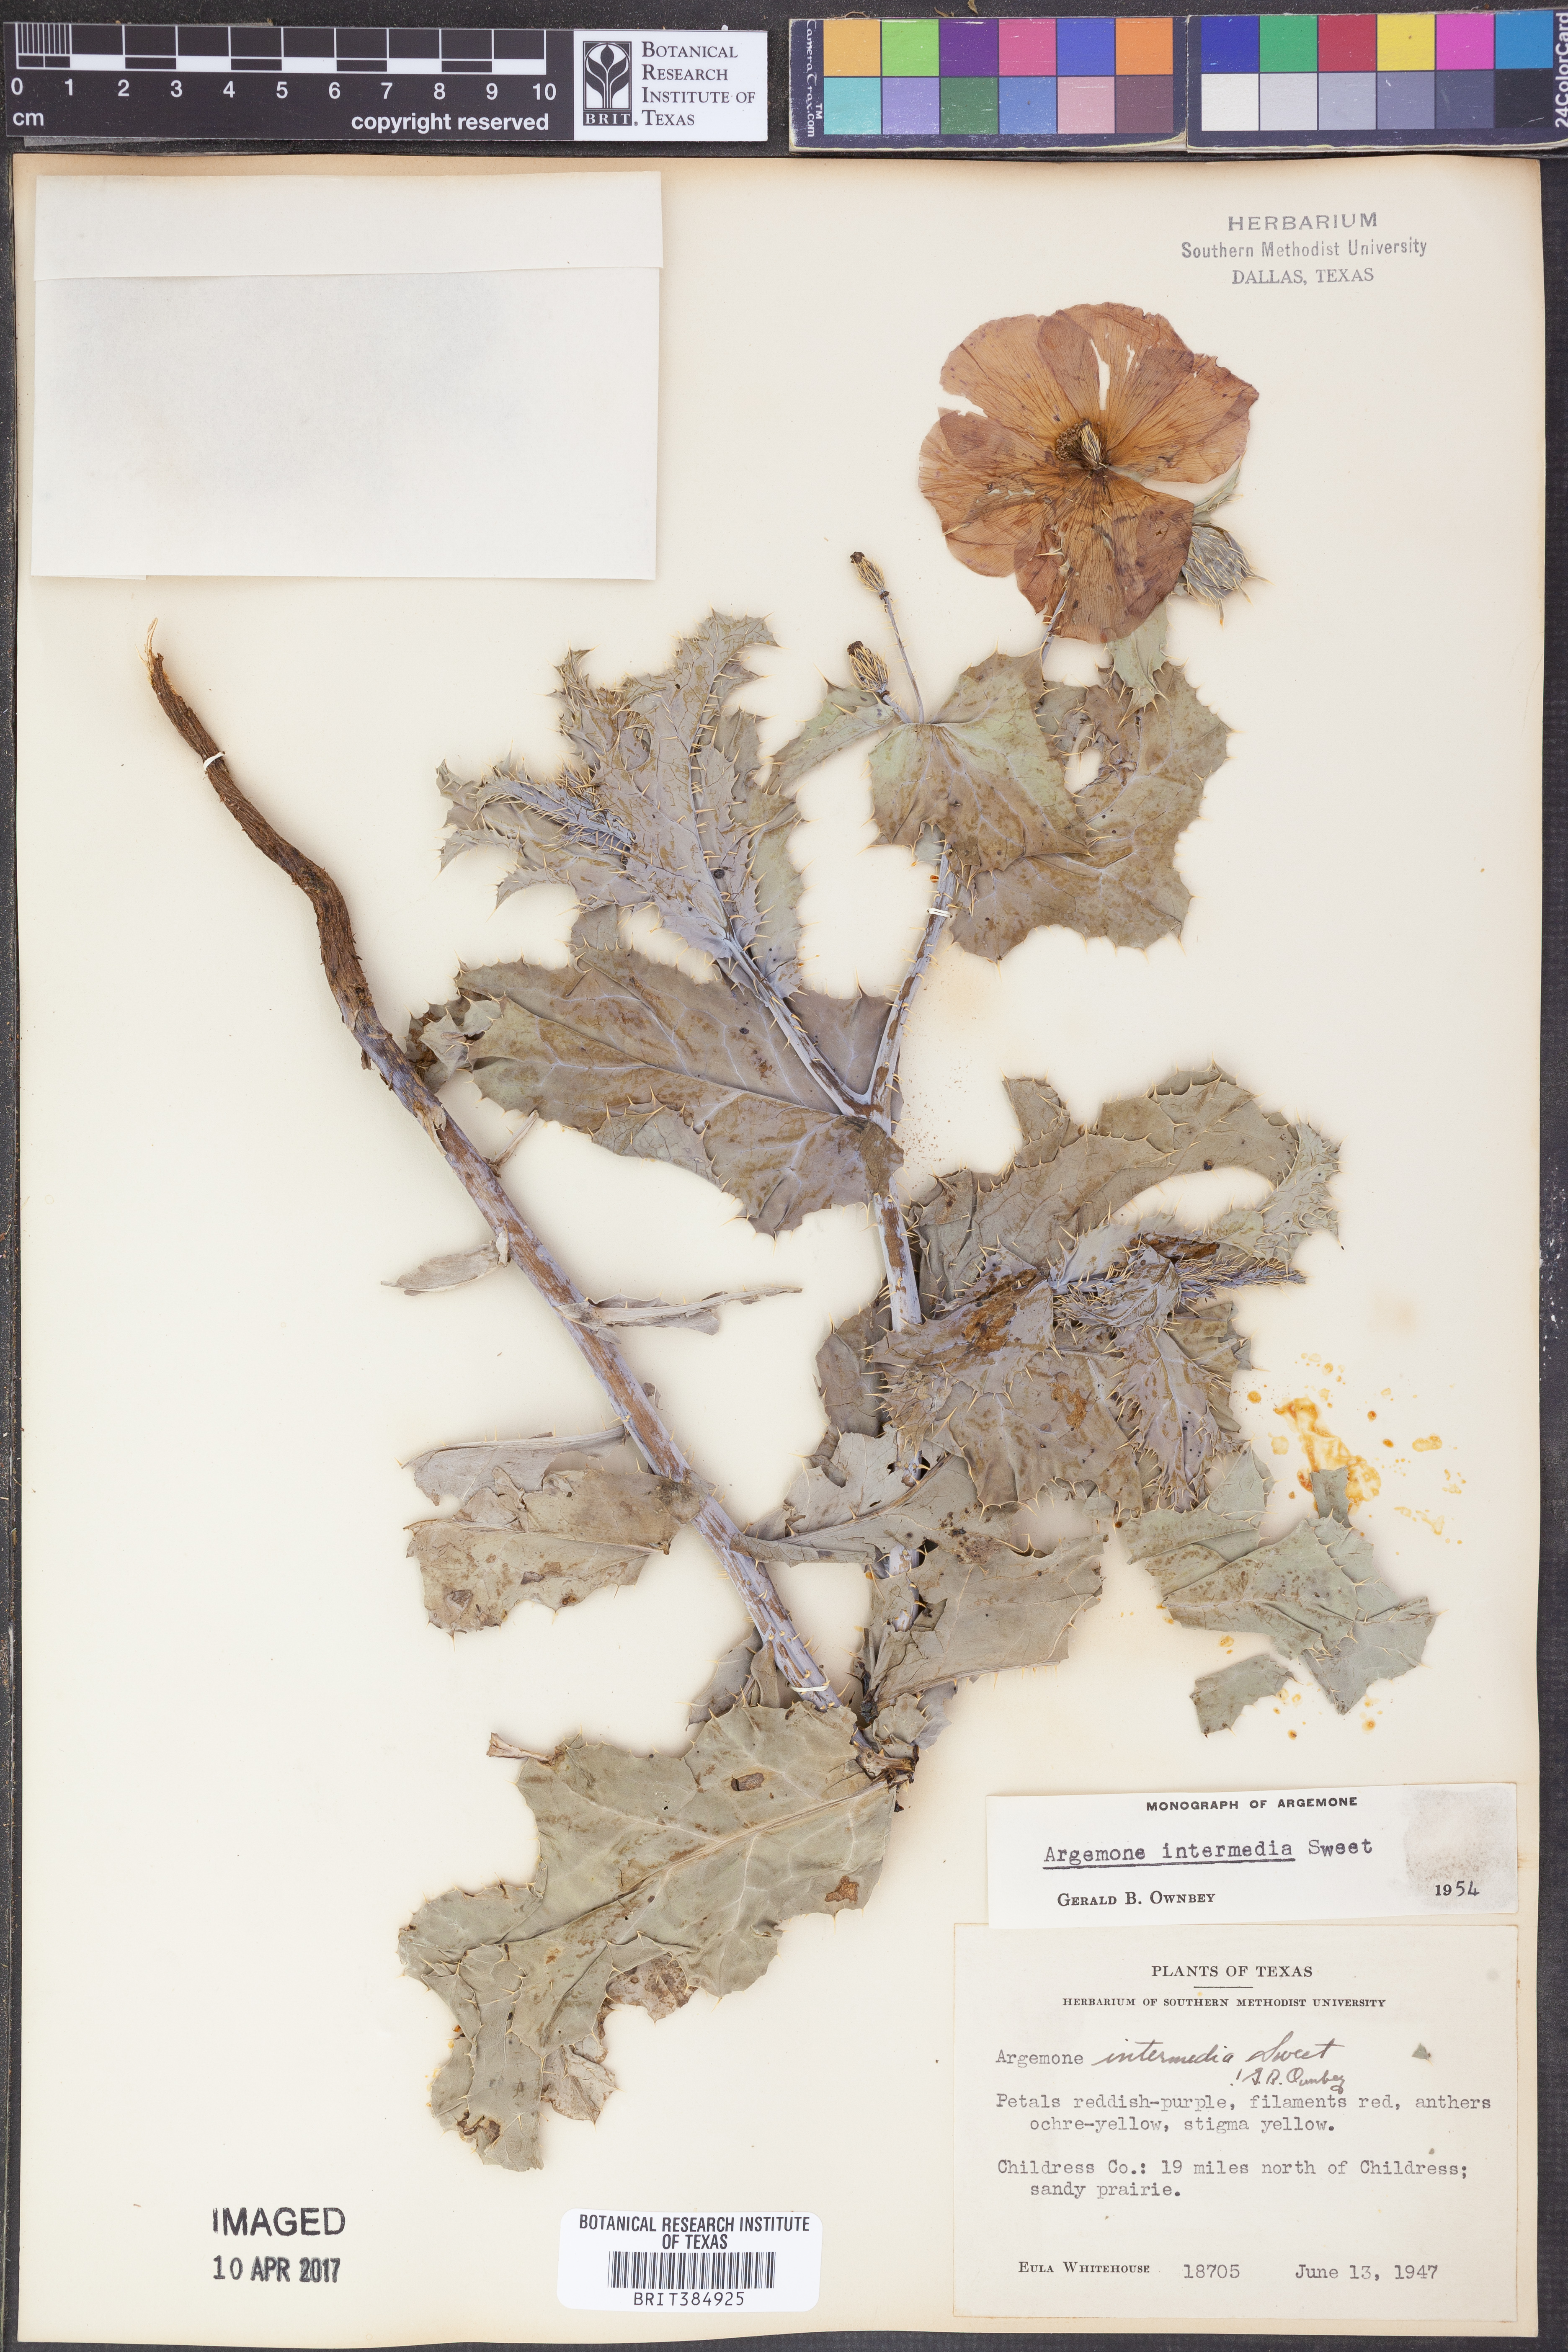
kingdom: Plantae
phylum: Tracheophyta
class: Magnoliopsida
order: Ranunculales
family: Papaveraceae
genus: Argemone
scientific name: Argemone intermedia
